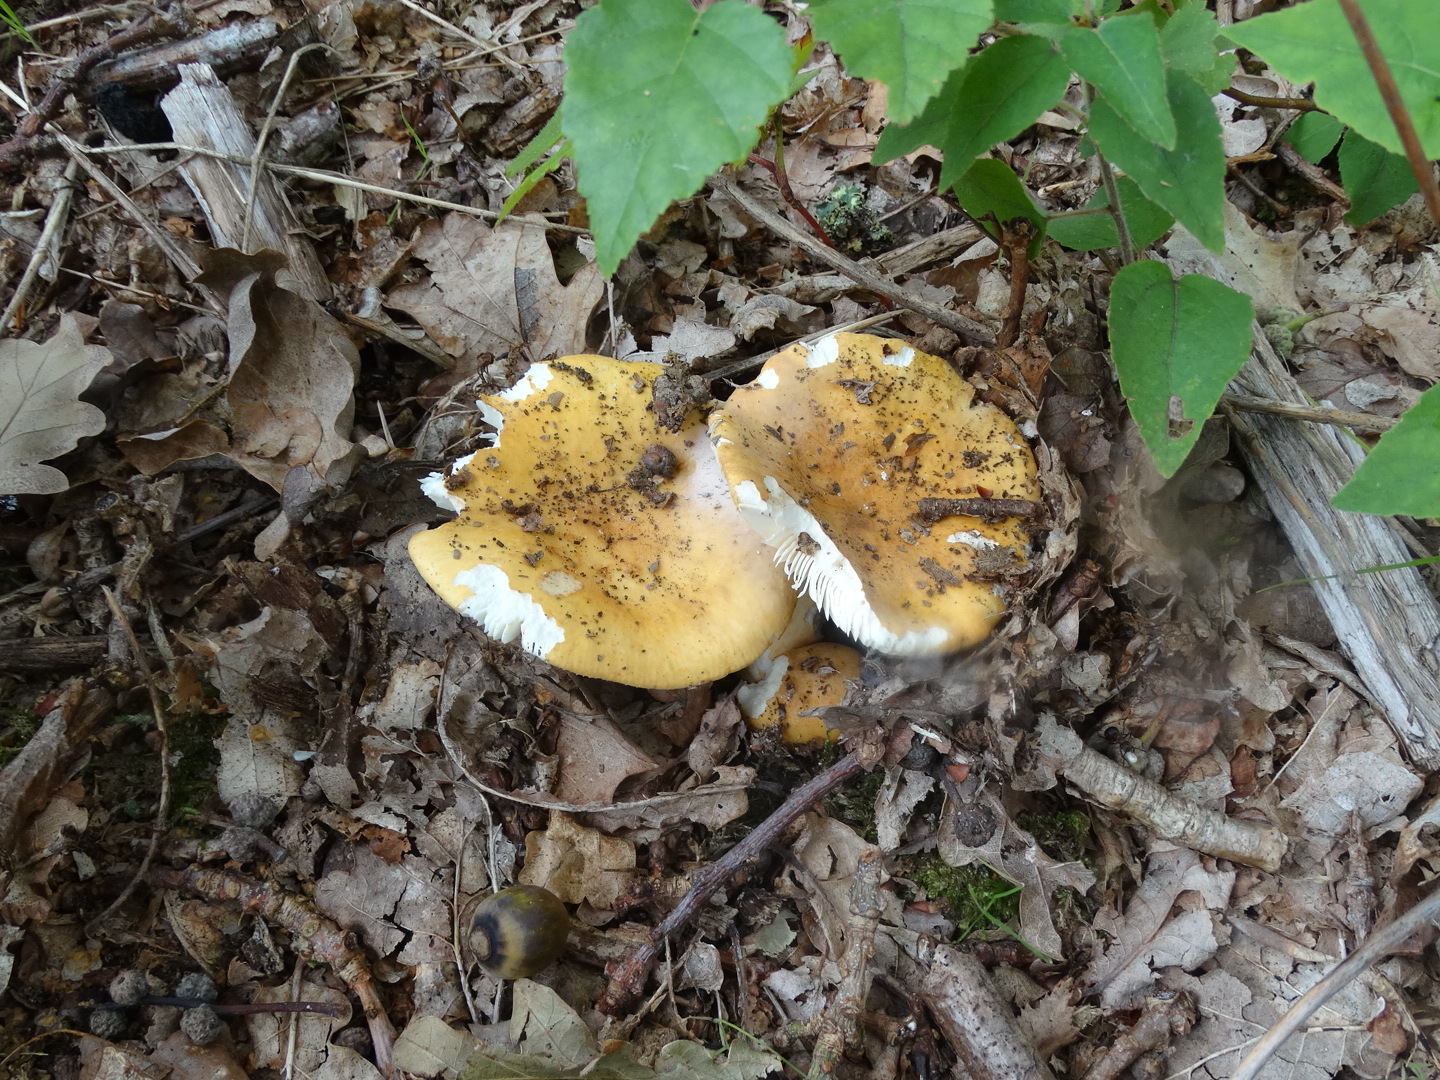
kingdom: Fungi
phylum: Basidiomycota
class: Agaricomycetes
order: Russulales
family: Russulaceae
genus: Russula
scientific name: Russula ochroleuca
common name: okkergul skørhat
